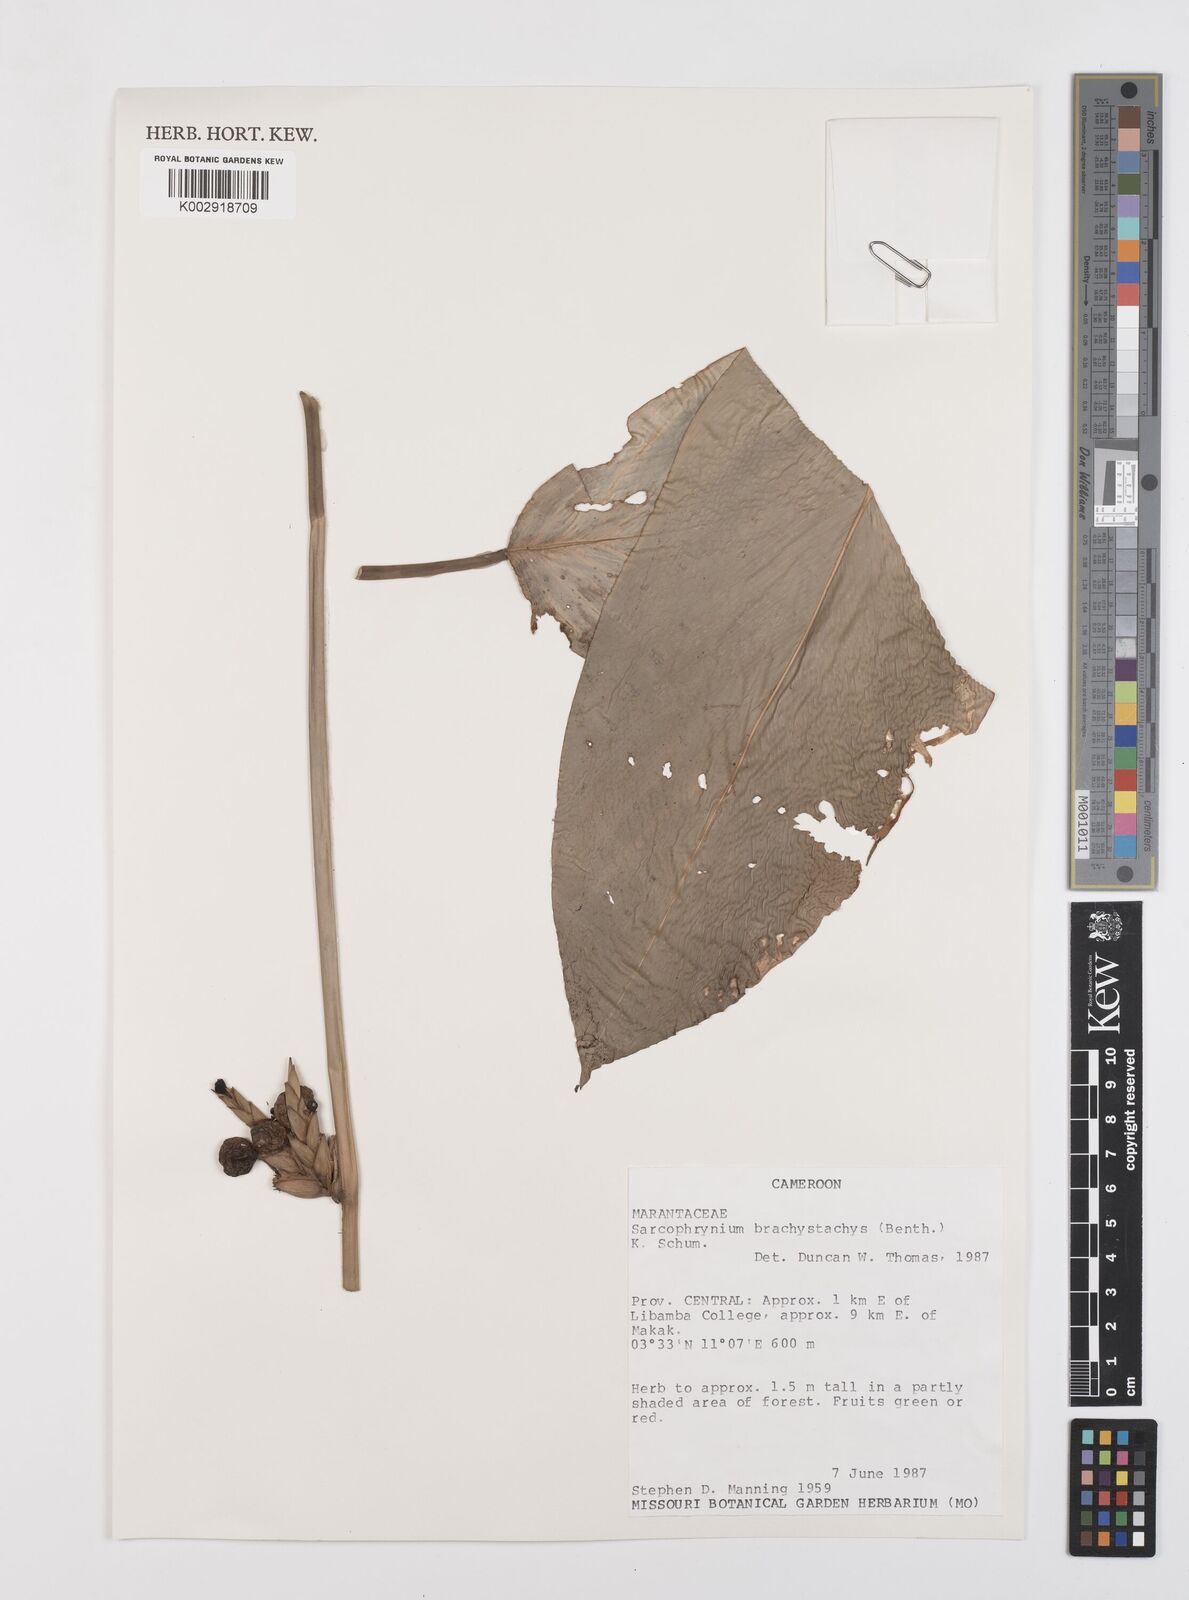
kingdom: Plantae
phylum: Tracheophyta
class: Liliopsida
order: Zingiberales
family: Marantaceae
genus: Sarcophrynium
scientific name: Sarcophrynium brachystachyum
